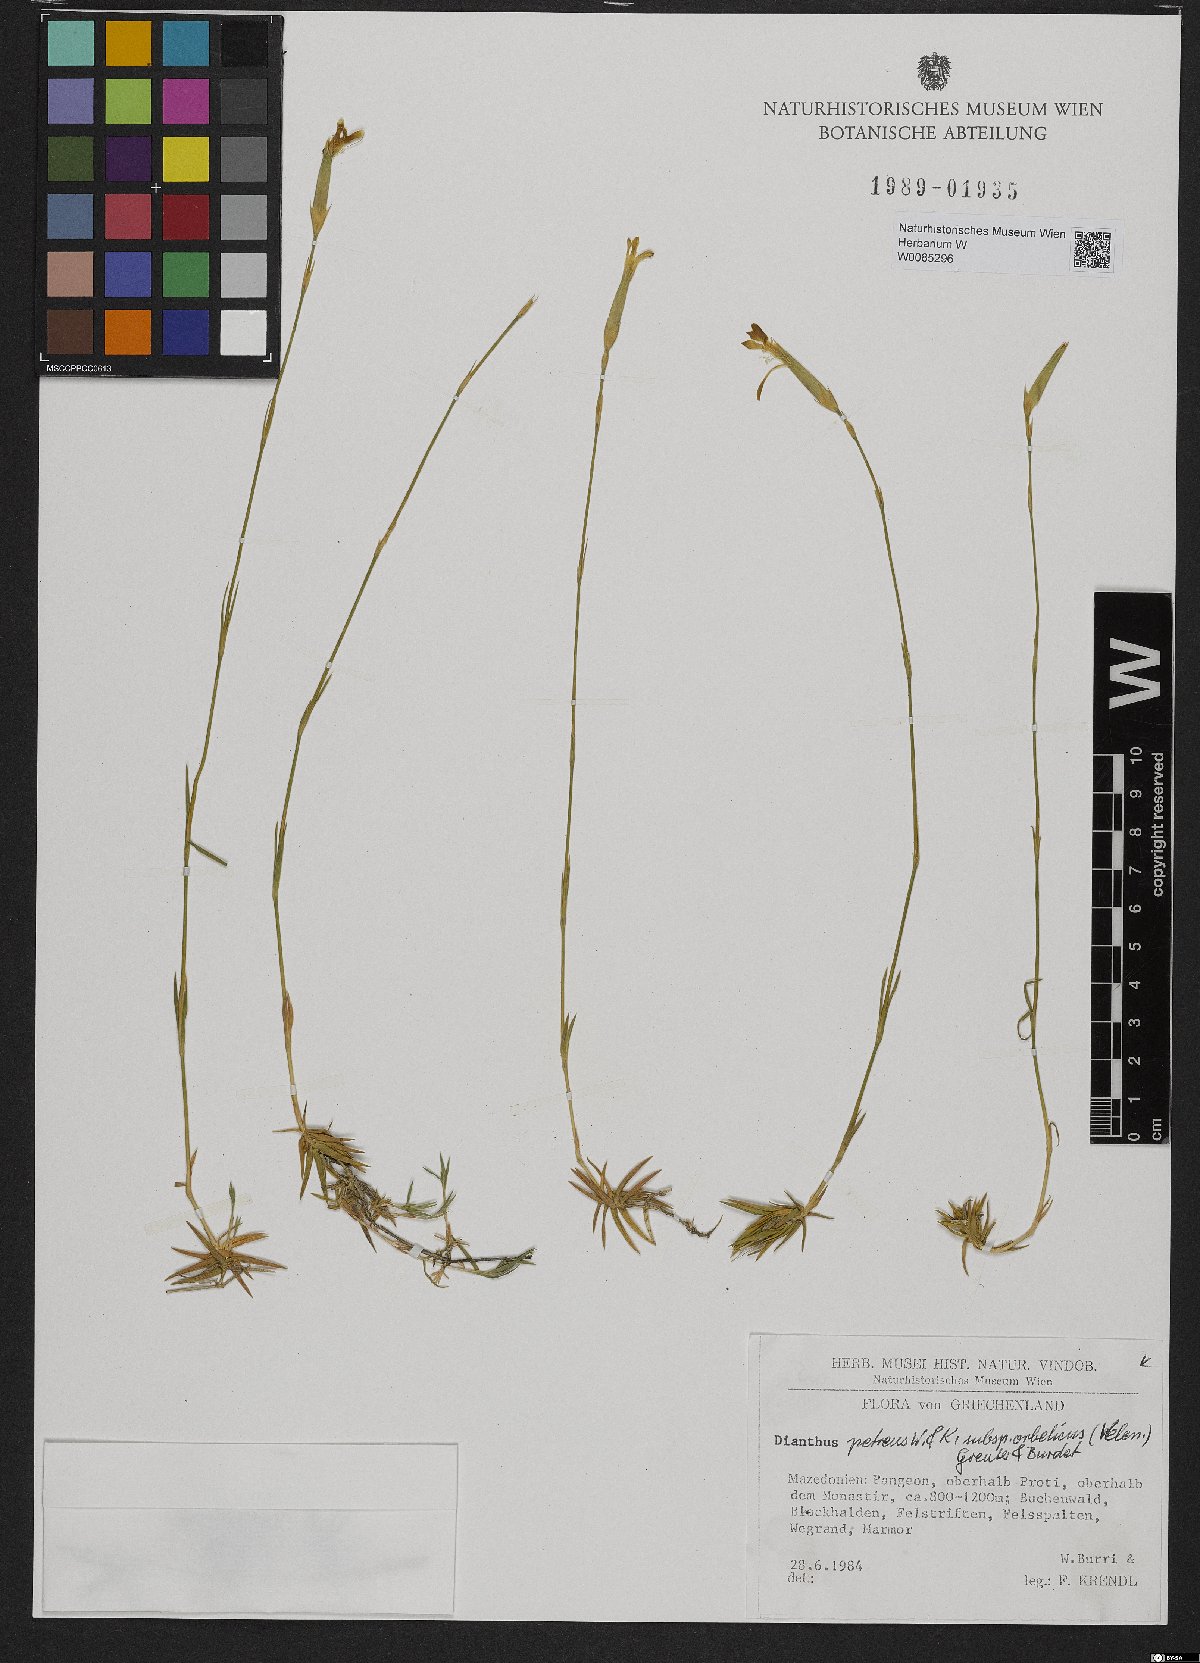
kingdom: Plantae
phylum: Tracheophyta
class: Magnoliopsida
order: Caryophyllales
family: Caryophyllaceae
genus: Dianthus
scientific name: Dianthus petraeus
